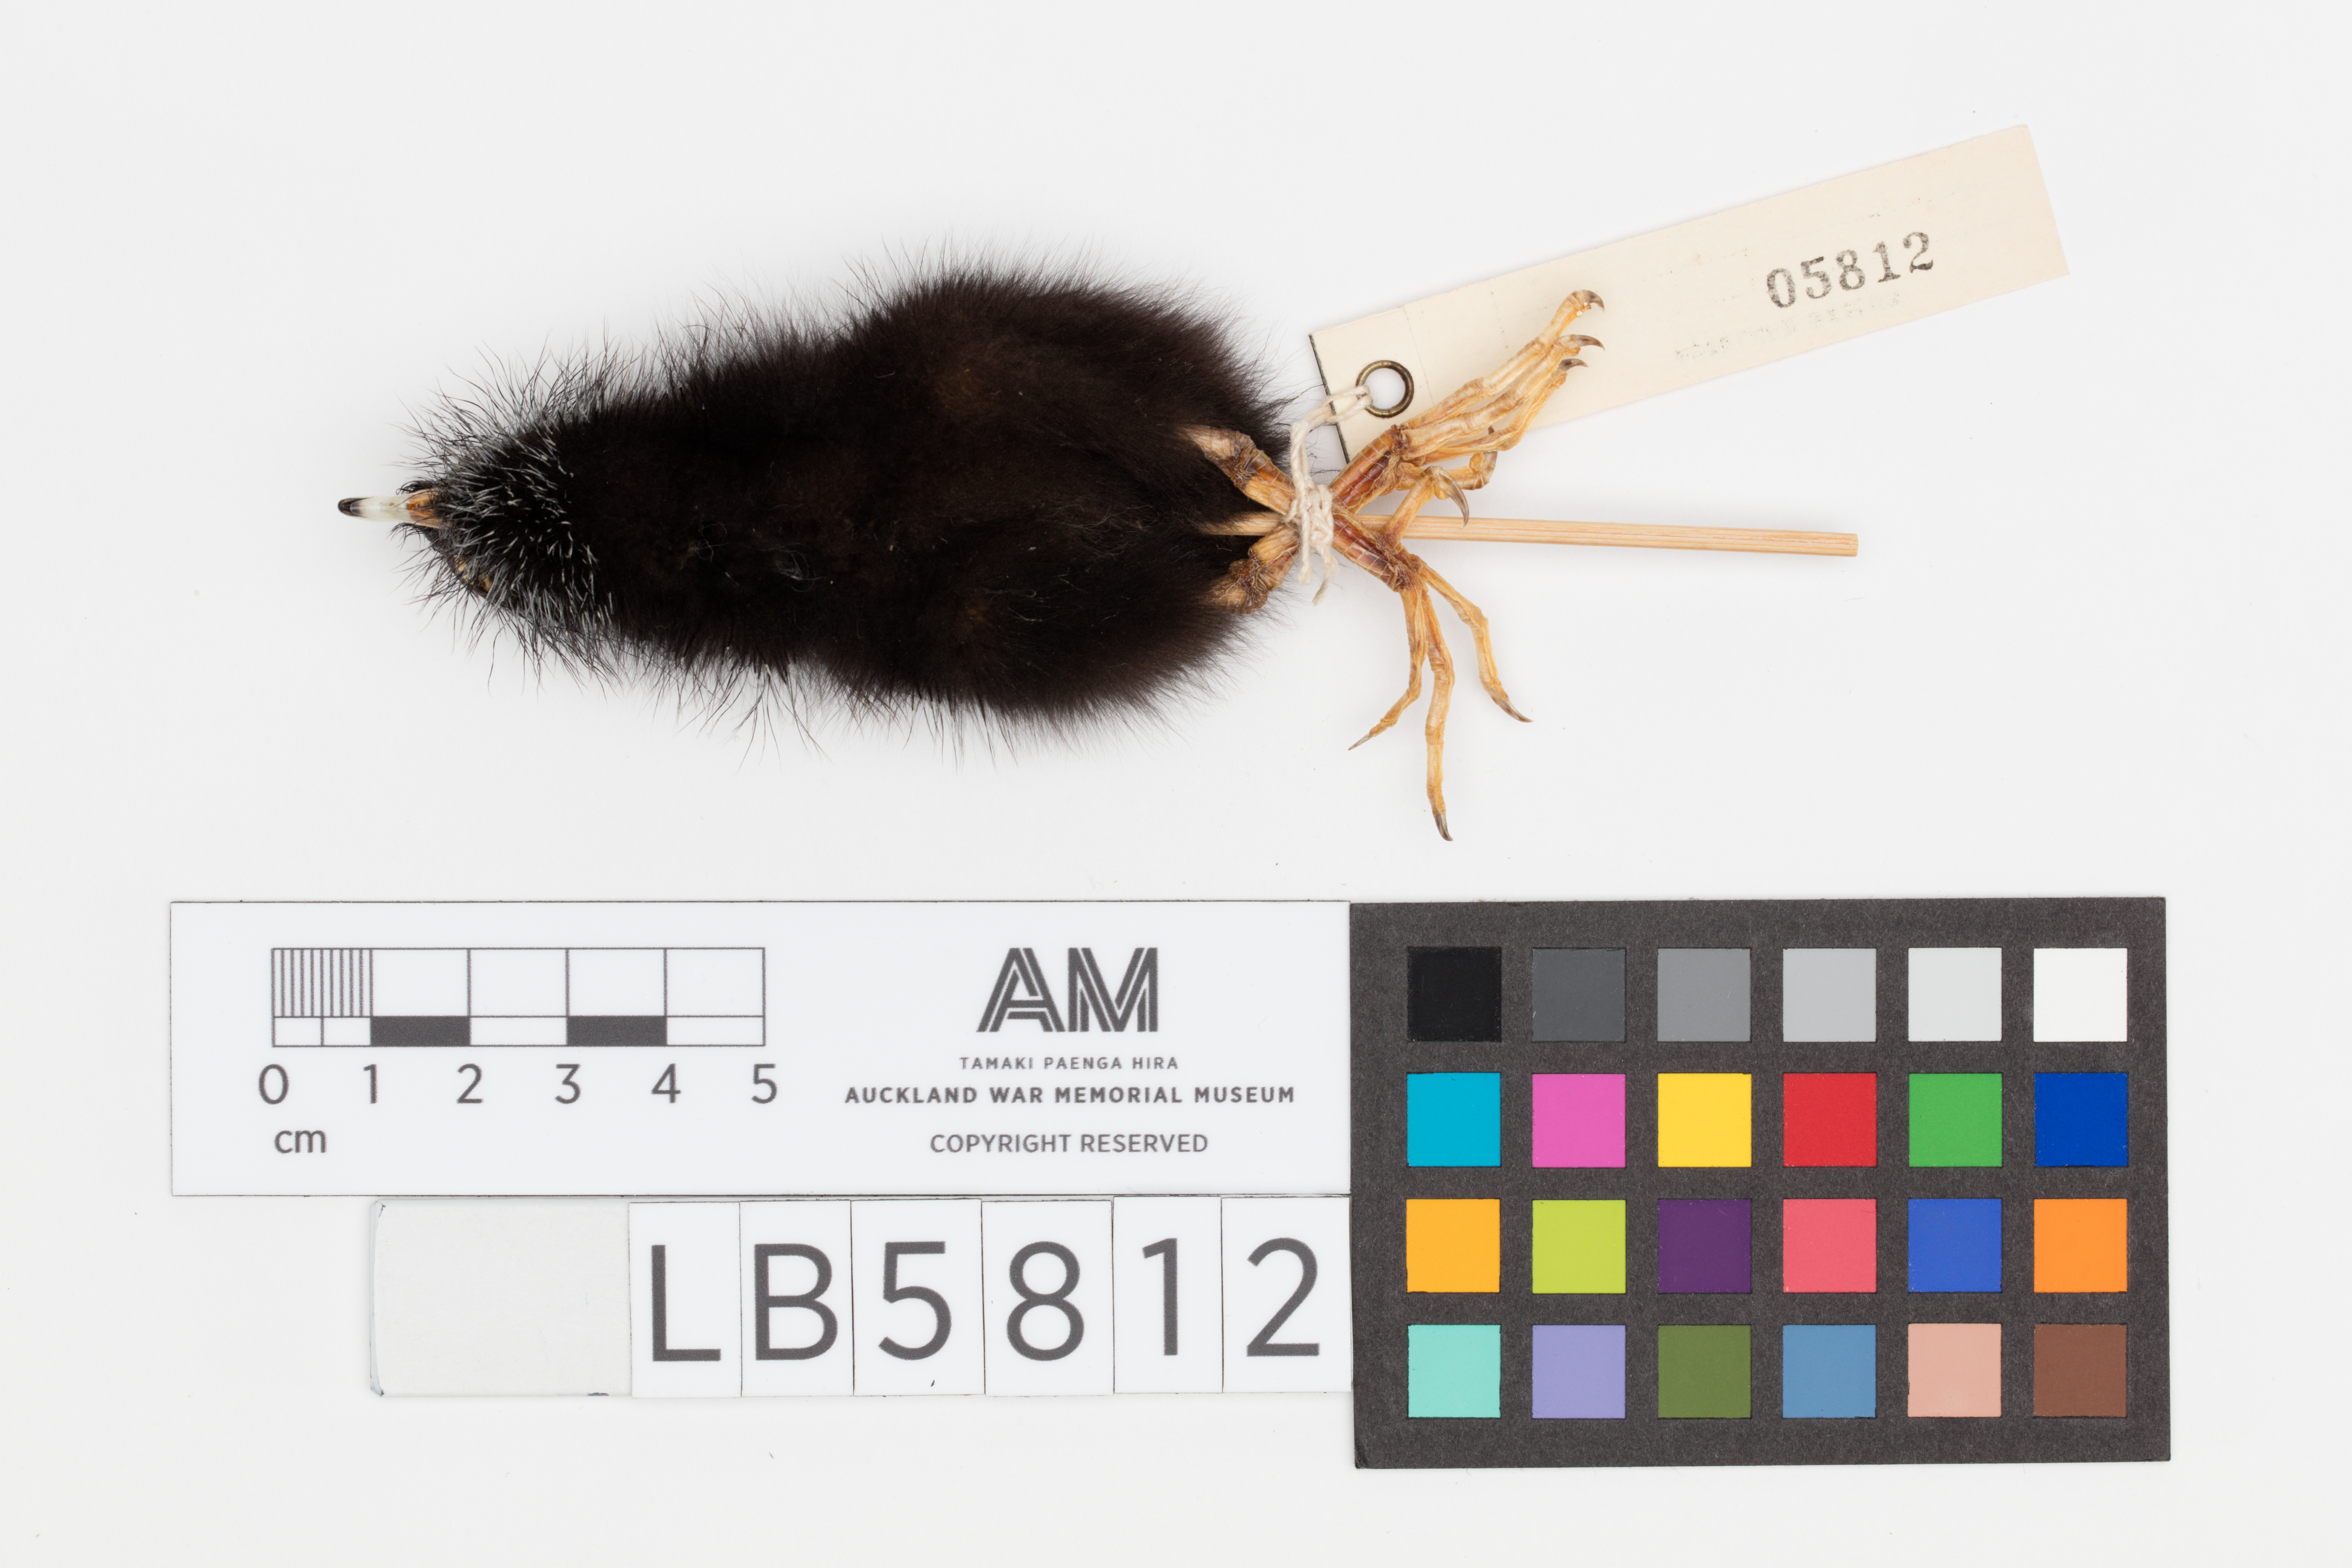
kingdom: Animalia
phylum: Chordata
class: Aves
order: Gruiformes
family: Rallidae
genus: Porphyrio
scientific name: Porphyrio melanotus
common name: Australasian swamphen
